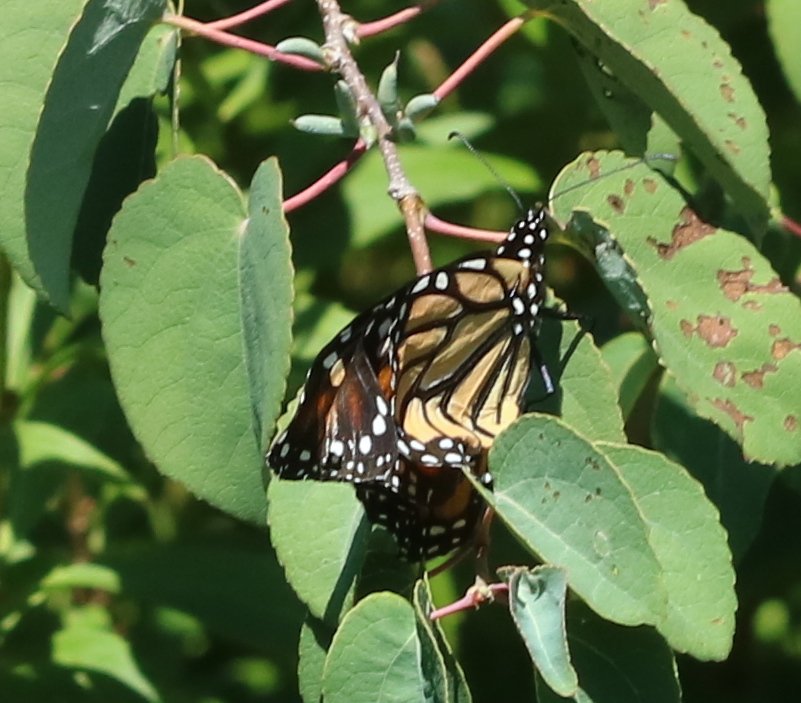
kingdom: Animalia
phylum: Arthropoda
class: Insecta
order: Lepidoptera
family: Nymphalidae
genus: Danaus
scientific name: Danaus plexippus
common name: Monarch
